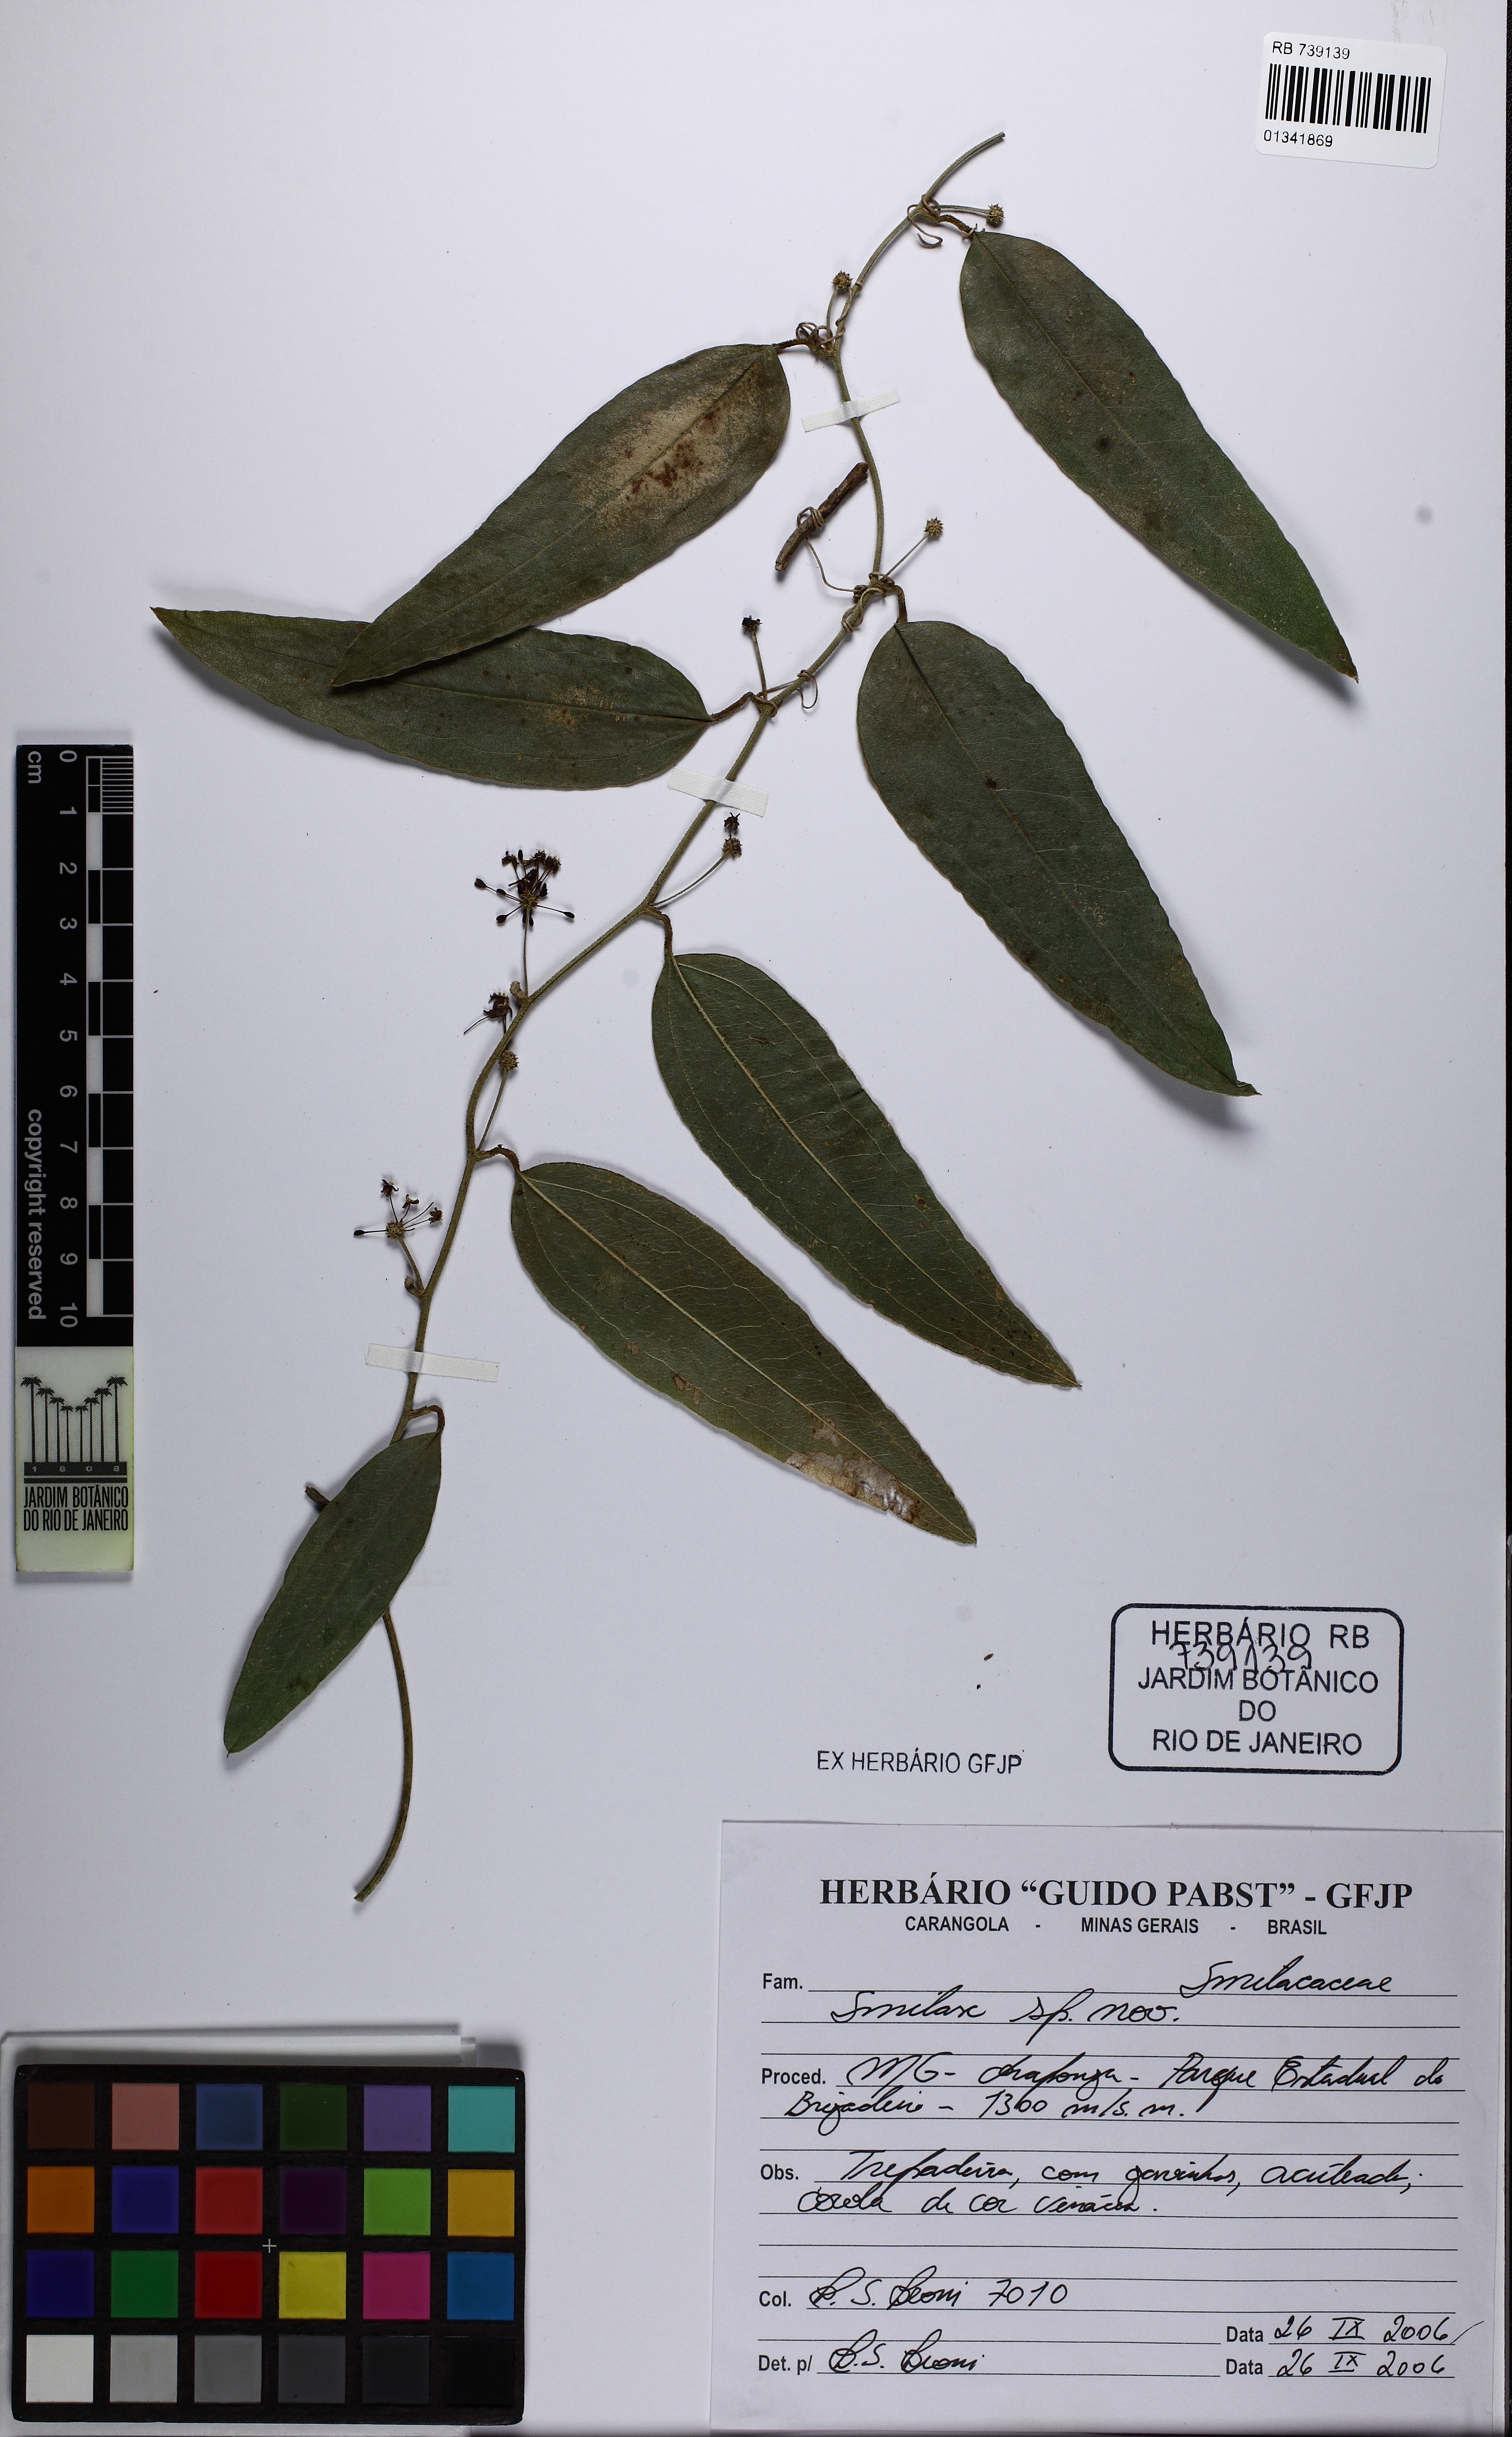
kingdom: Plantae
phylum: Tracheophyta
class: Liliopsida
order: Liliales
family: Smilacaceae
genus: Smilax
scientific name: Smilax
